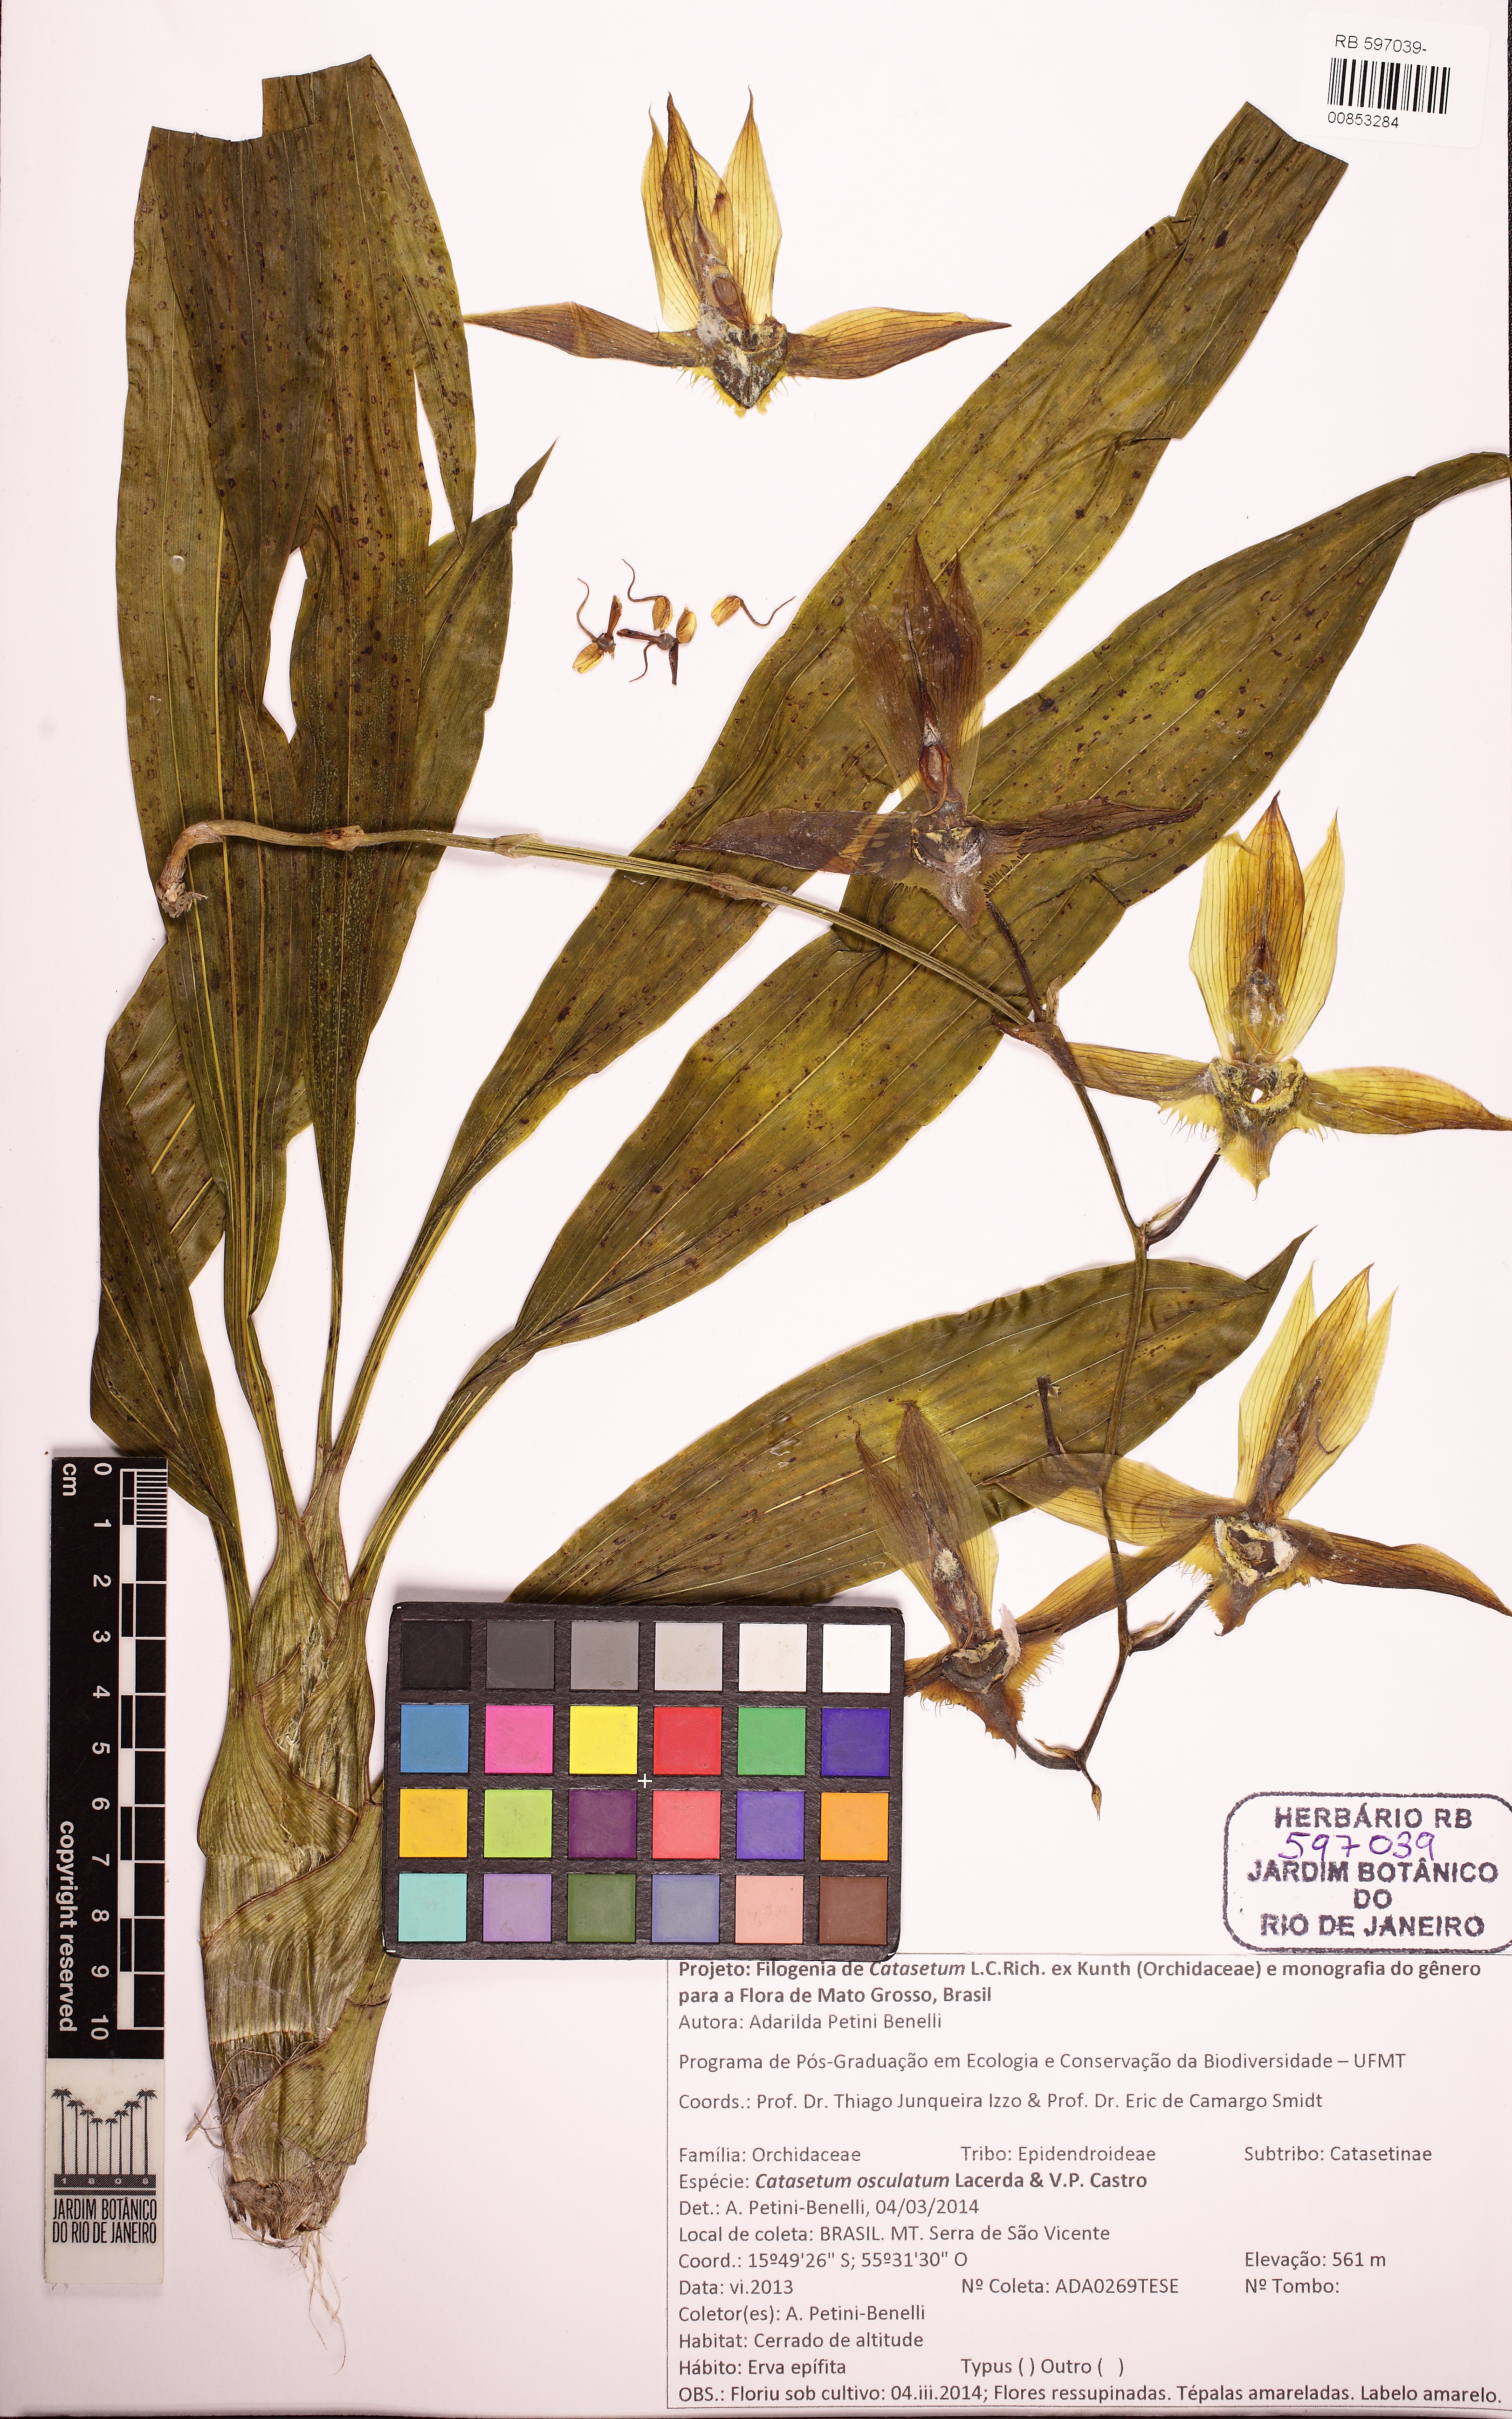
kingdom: Plantae
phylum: Tracheophyta
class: Liliopsida
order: Asparagales
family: Orchidaceae
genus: Catasetum
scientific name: Catasetum osculatum
